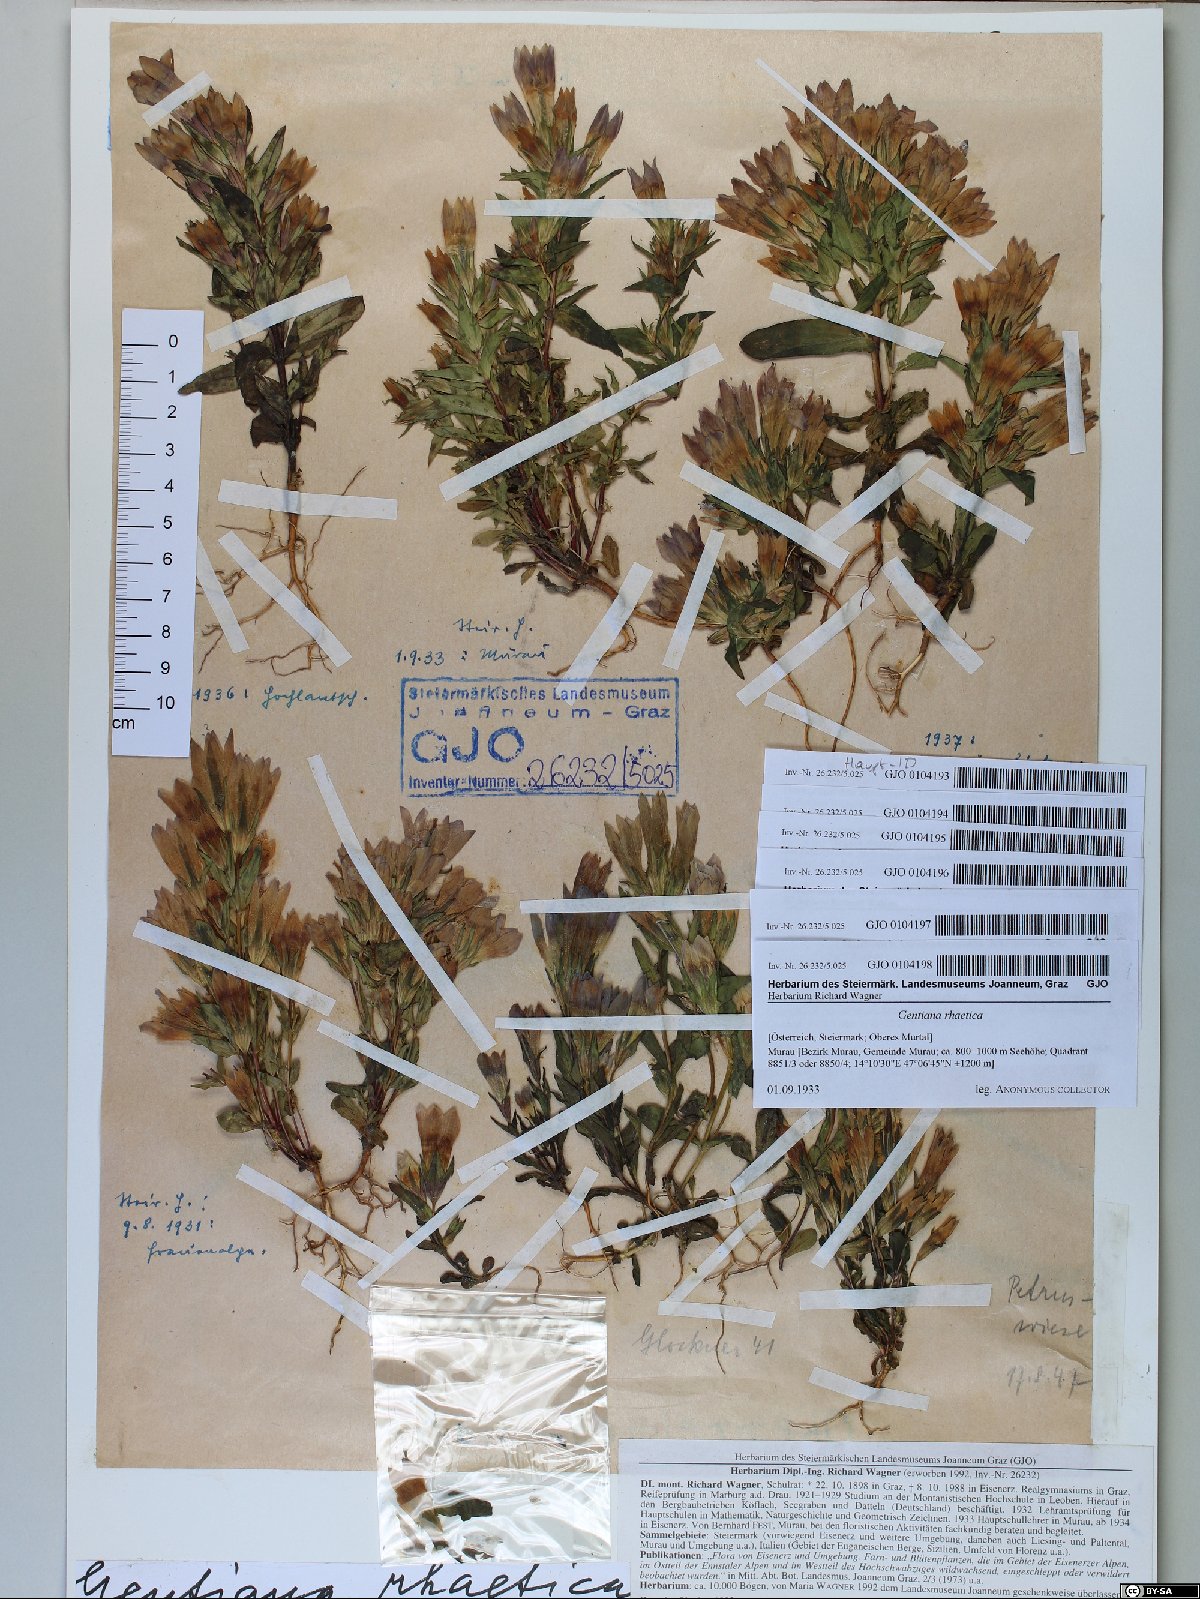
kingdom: Plantae
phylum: Tracheophyta
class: Magnoliopsida
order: Gentianales
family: Gentianaceae
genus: Gentianella
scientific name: Gentianella rhaetica
